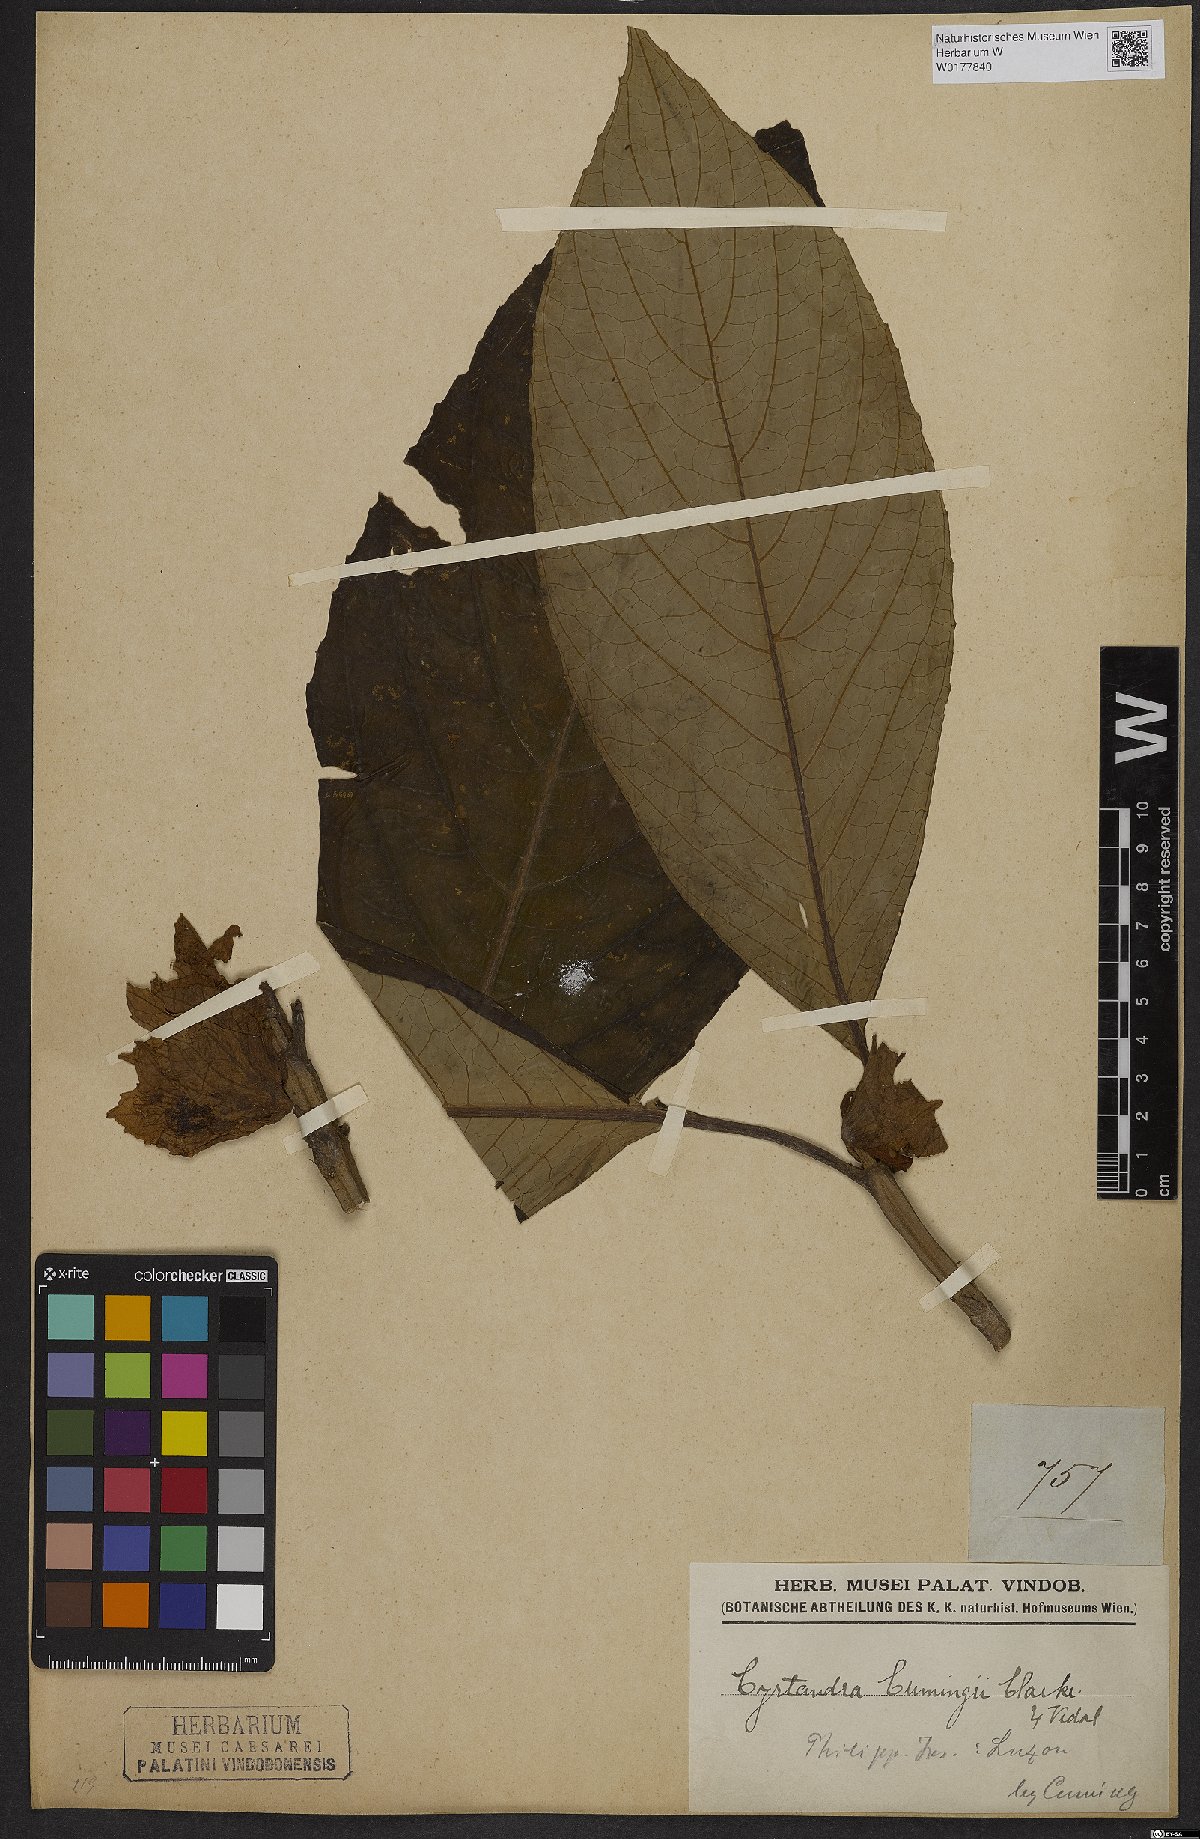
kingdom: Plantae
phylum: Tracheophyta
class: Magnoliopsida
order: Lamiales
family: Gesneriaceae
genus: Cyrtandra
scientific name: Cyrtandra
